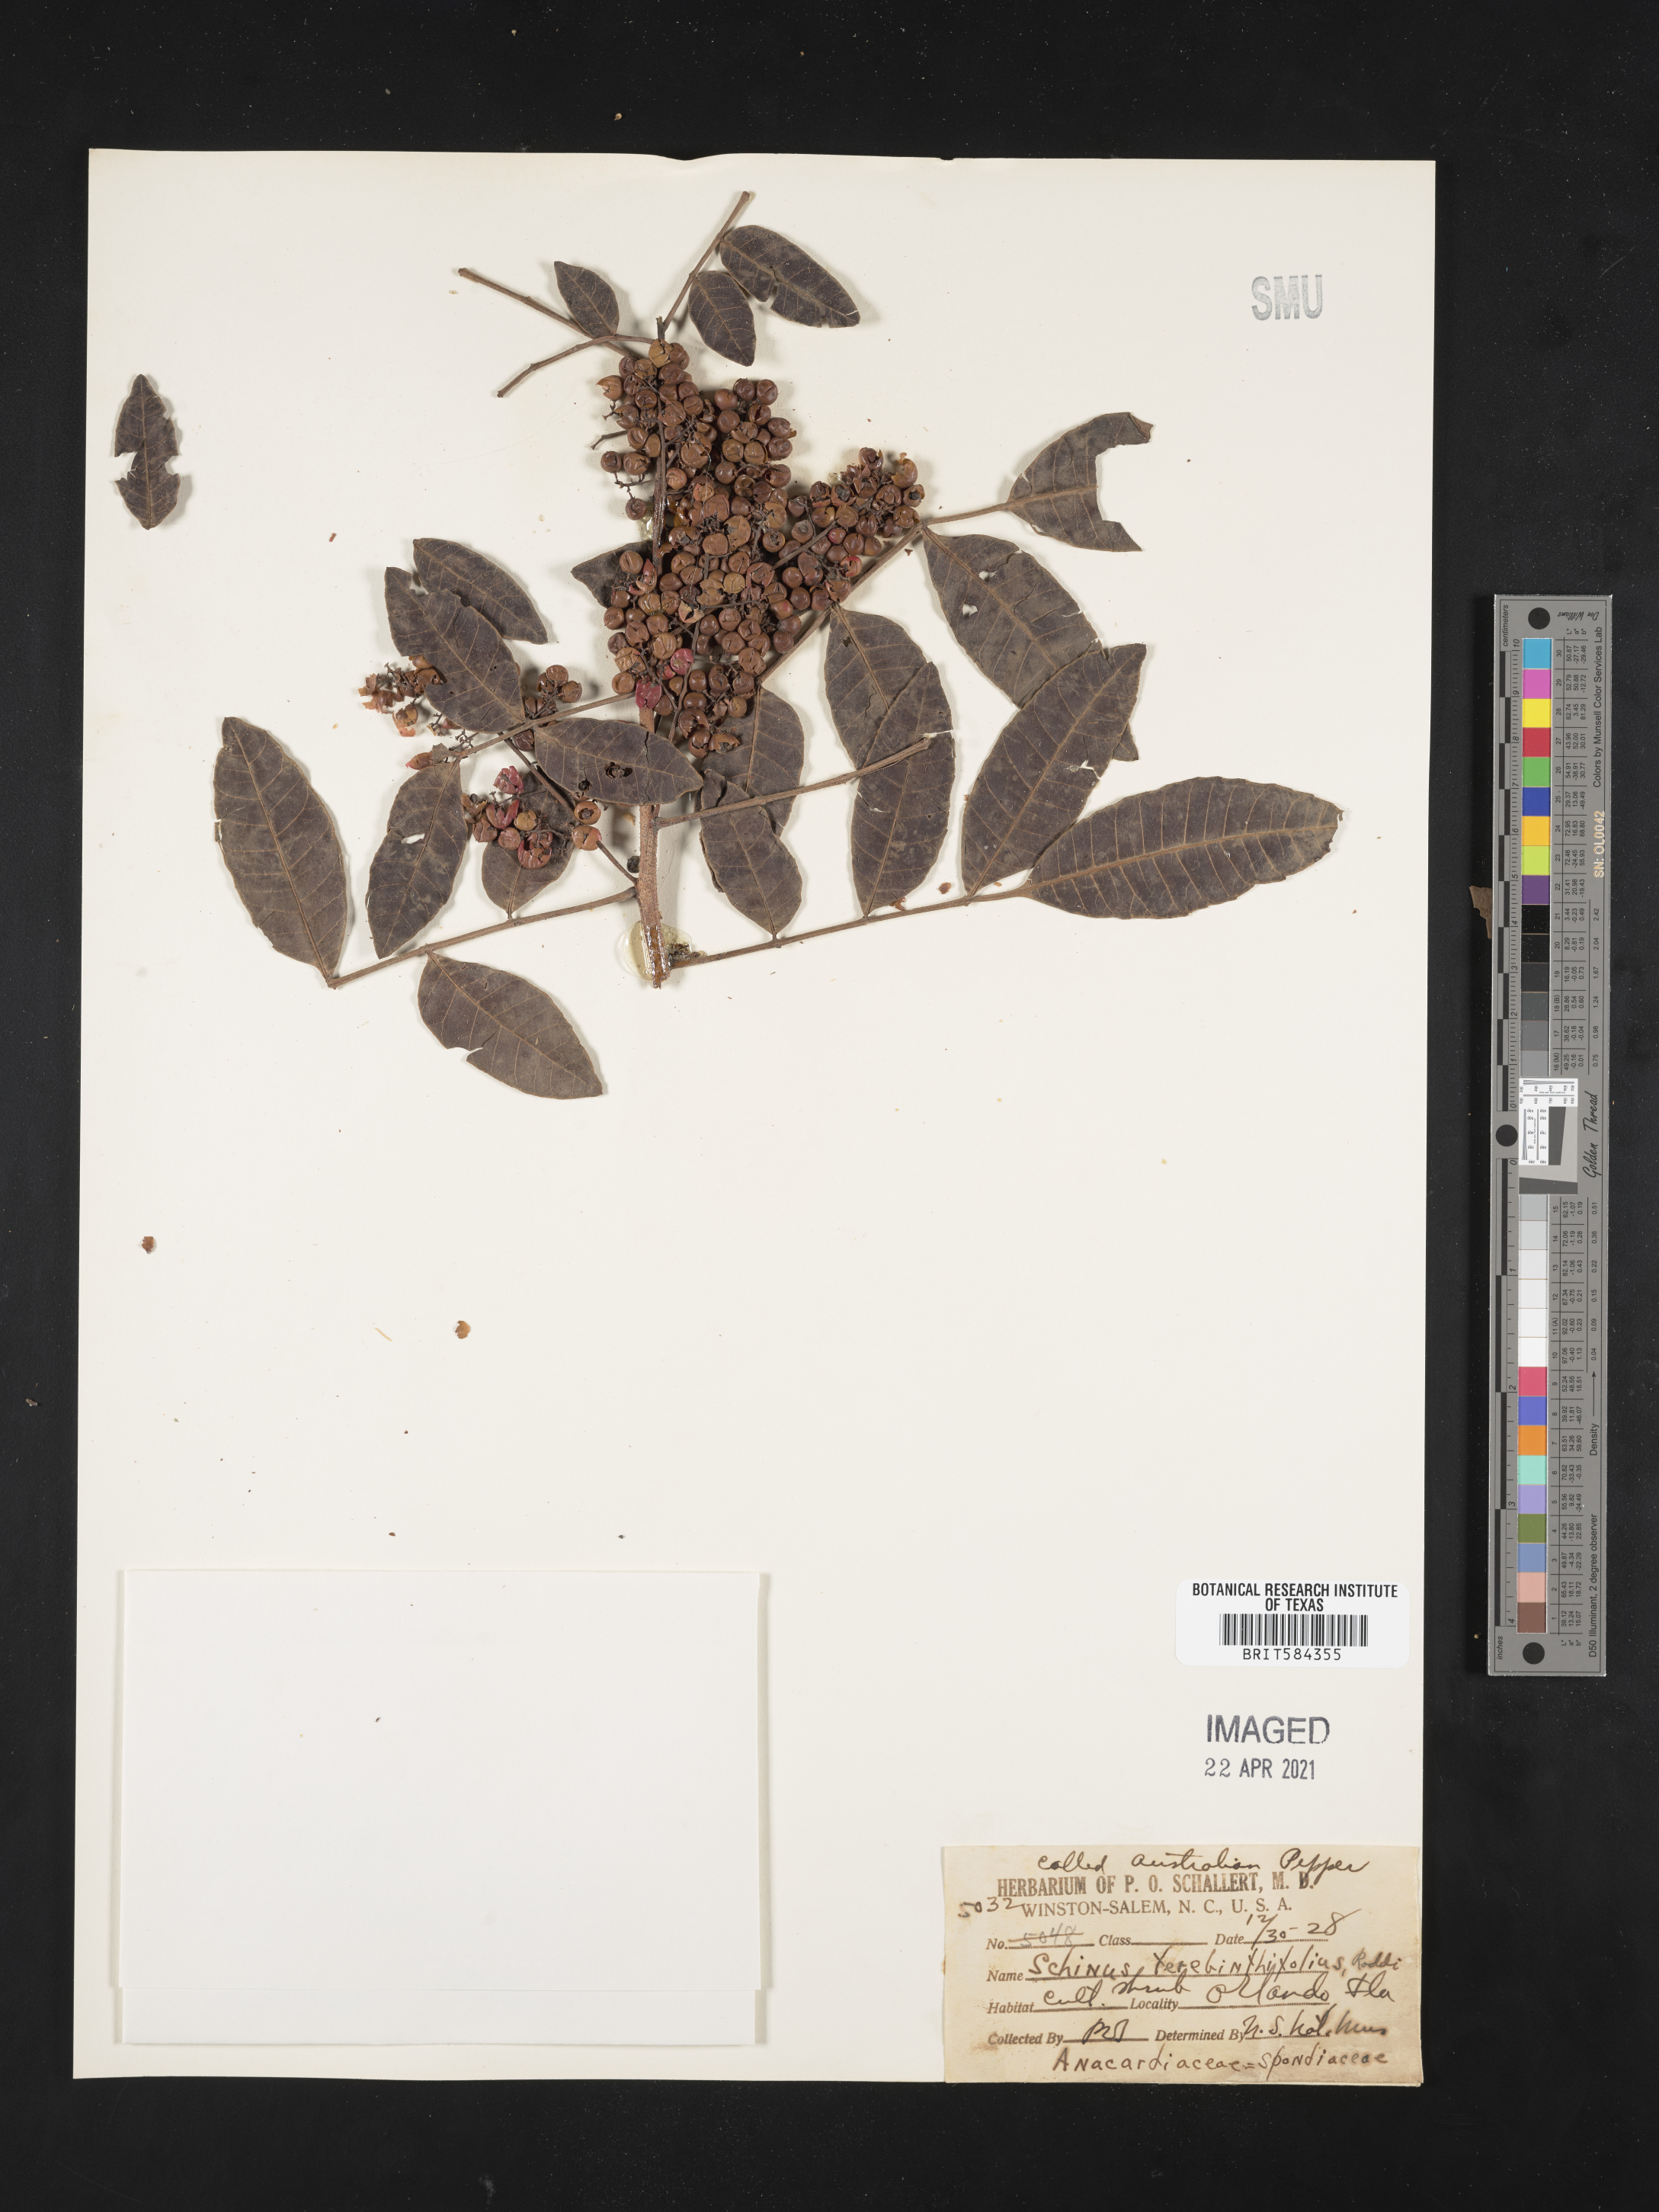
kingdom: Plantae
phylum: Tracheophyta
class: Magnoliopsida
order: Sapindales
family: Anacardiaceae
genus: Schinus
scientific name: Schinus terebinthifolia
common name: Brazilian peppertree
